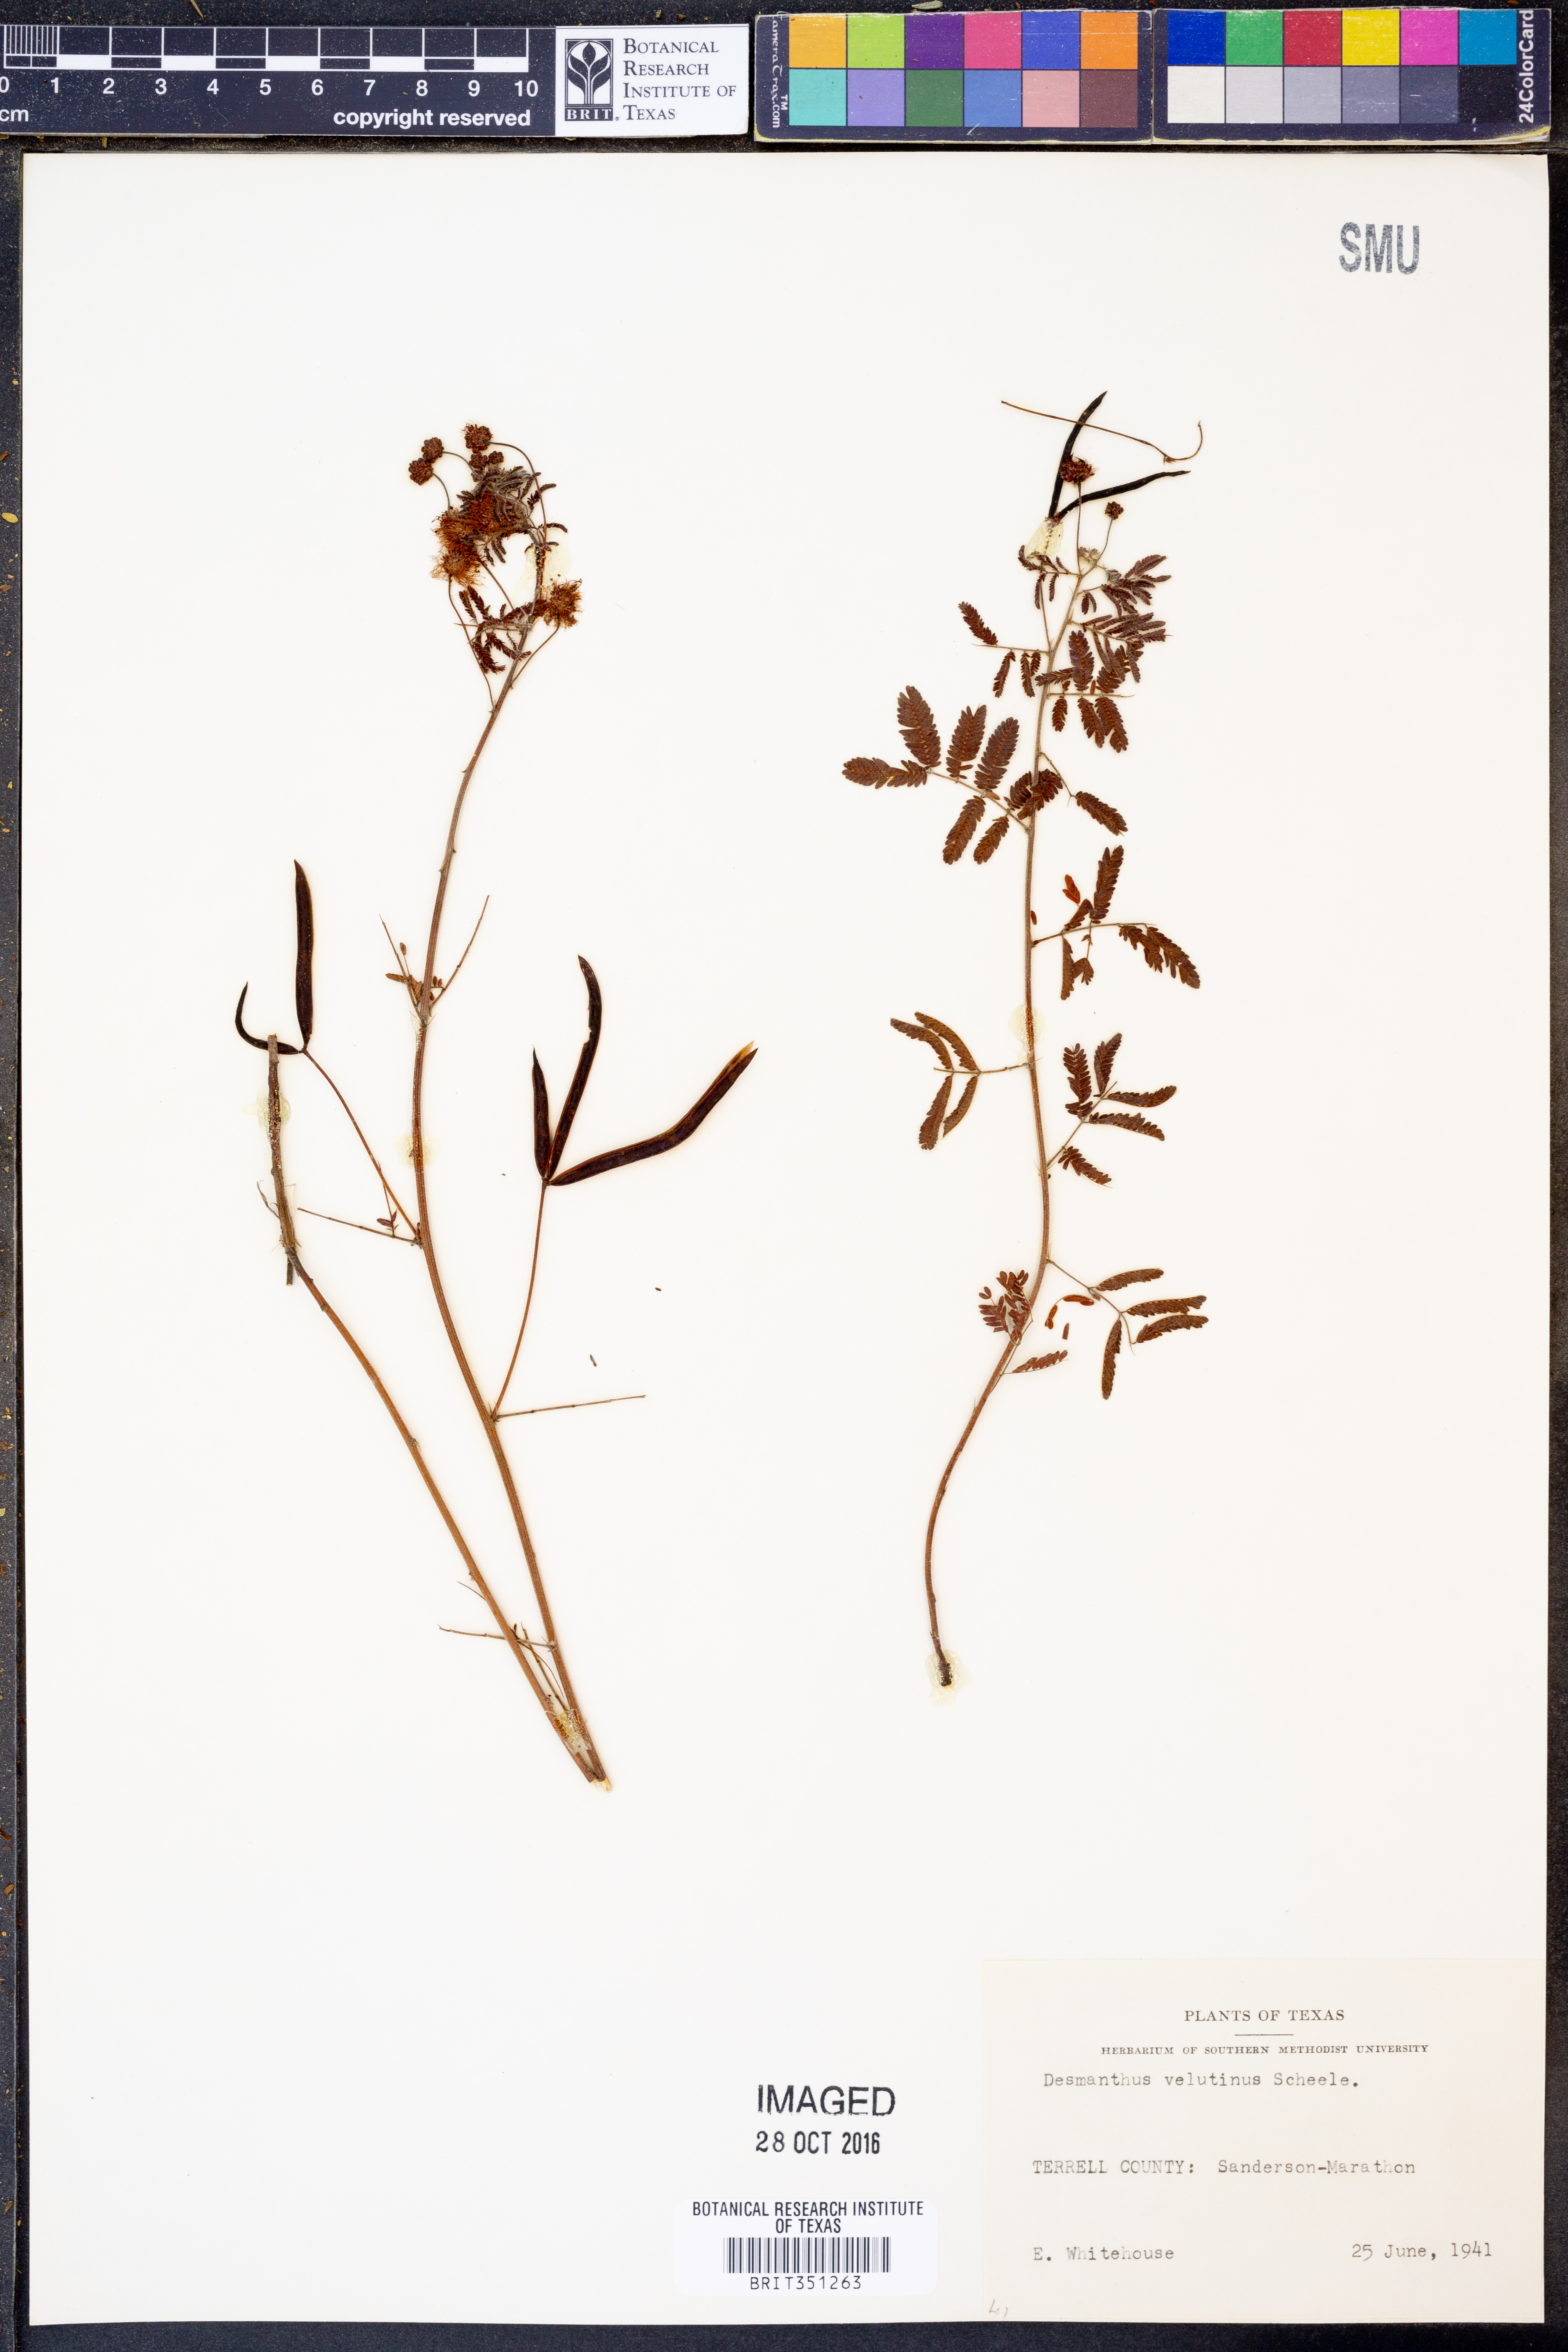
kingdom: Plantae
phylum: Tracheophyta
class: Magnoliopsida
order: Fabales
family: Fabaceae
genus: Desmanthus
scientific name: Desmanthus velutinus
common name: Velvet bundle-flower
